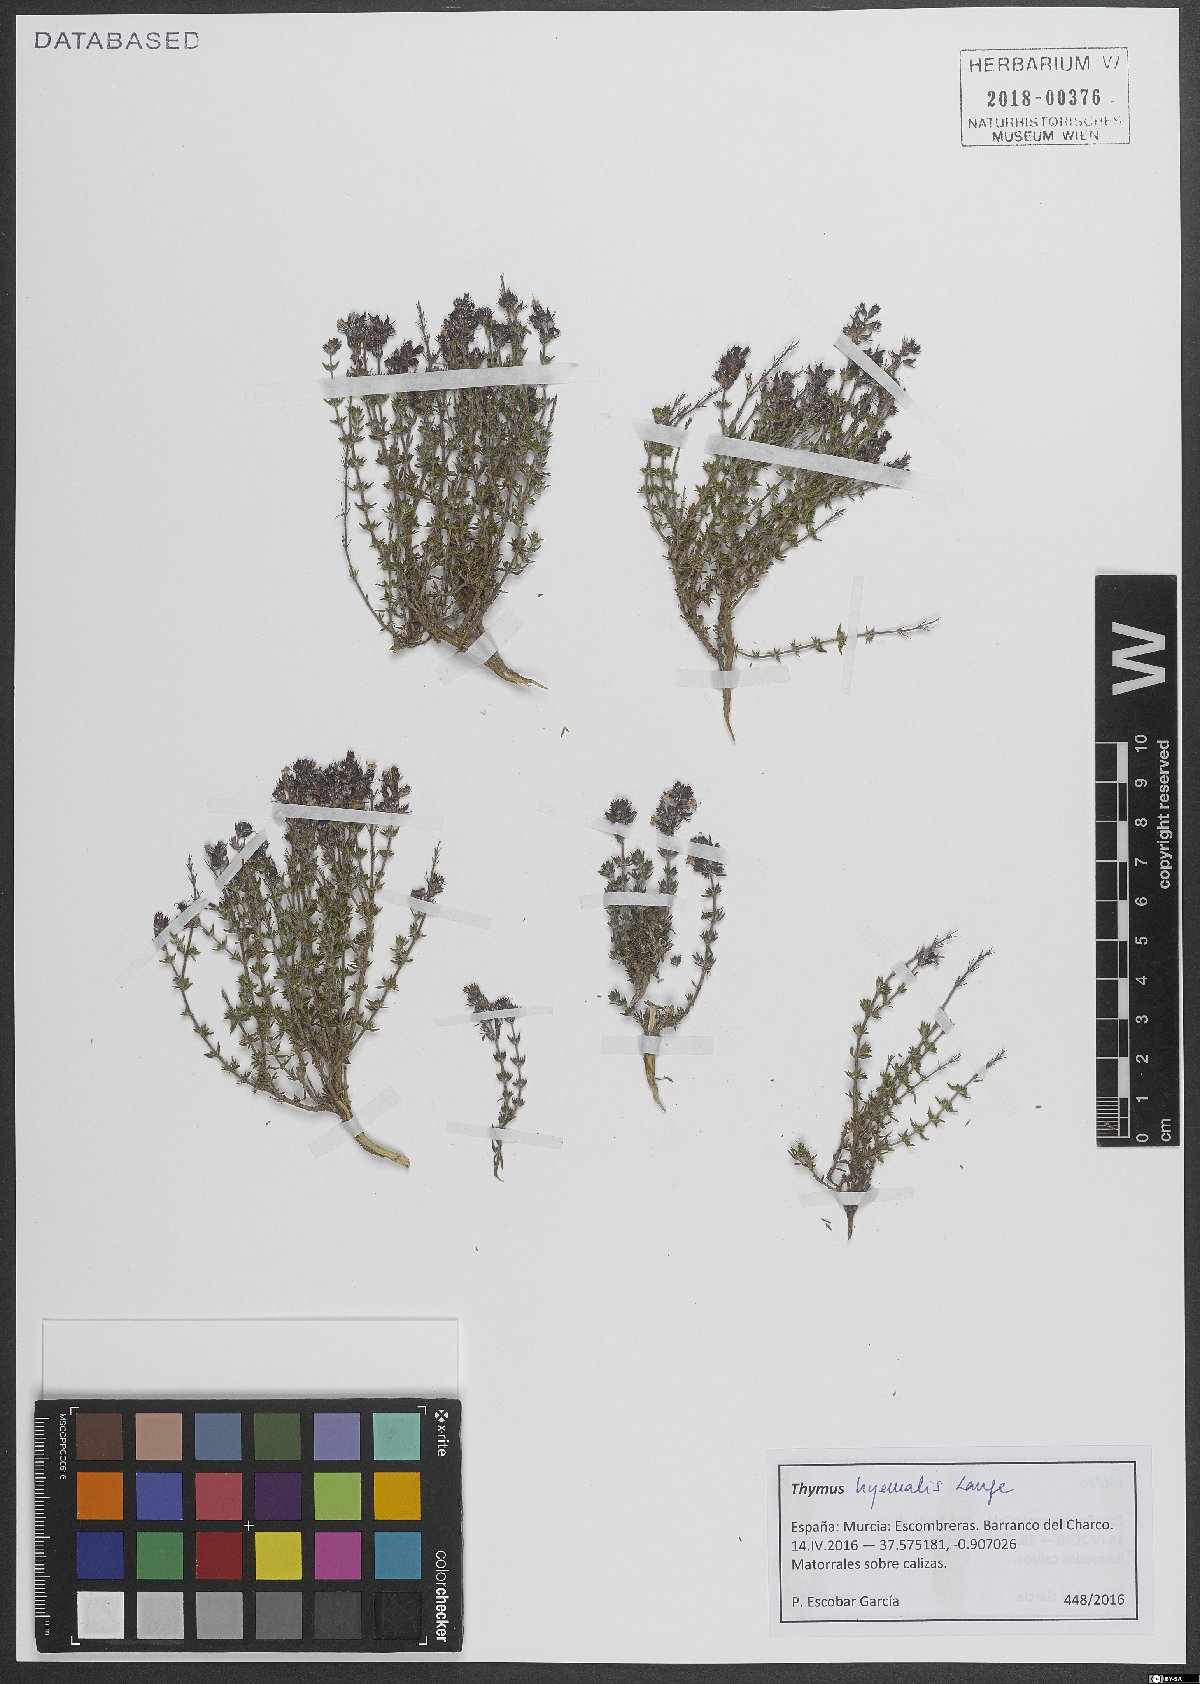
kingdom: Plantae
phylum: Tracheophyta
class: Magnoliopsida
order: Lamiales
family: Lamiaceae
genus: Thymus
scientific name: Thymus hyemalis
